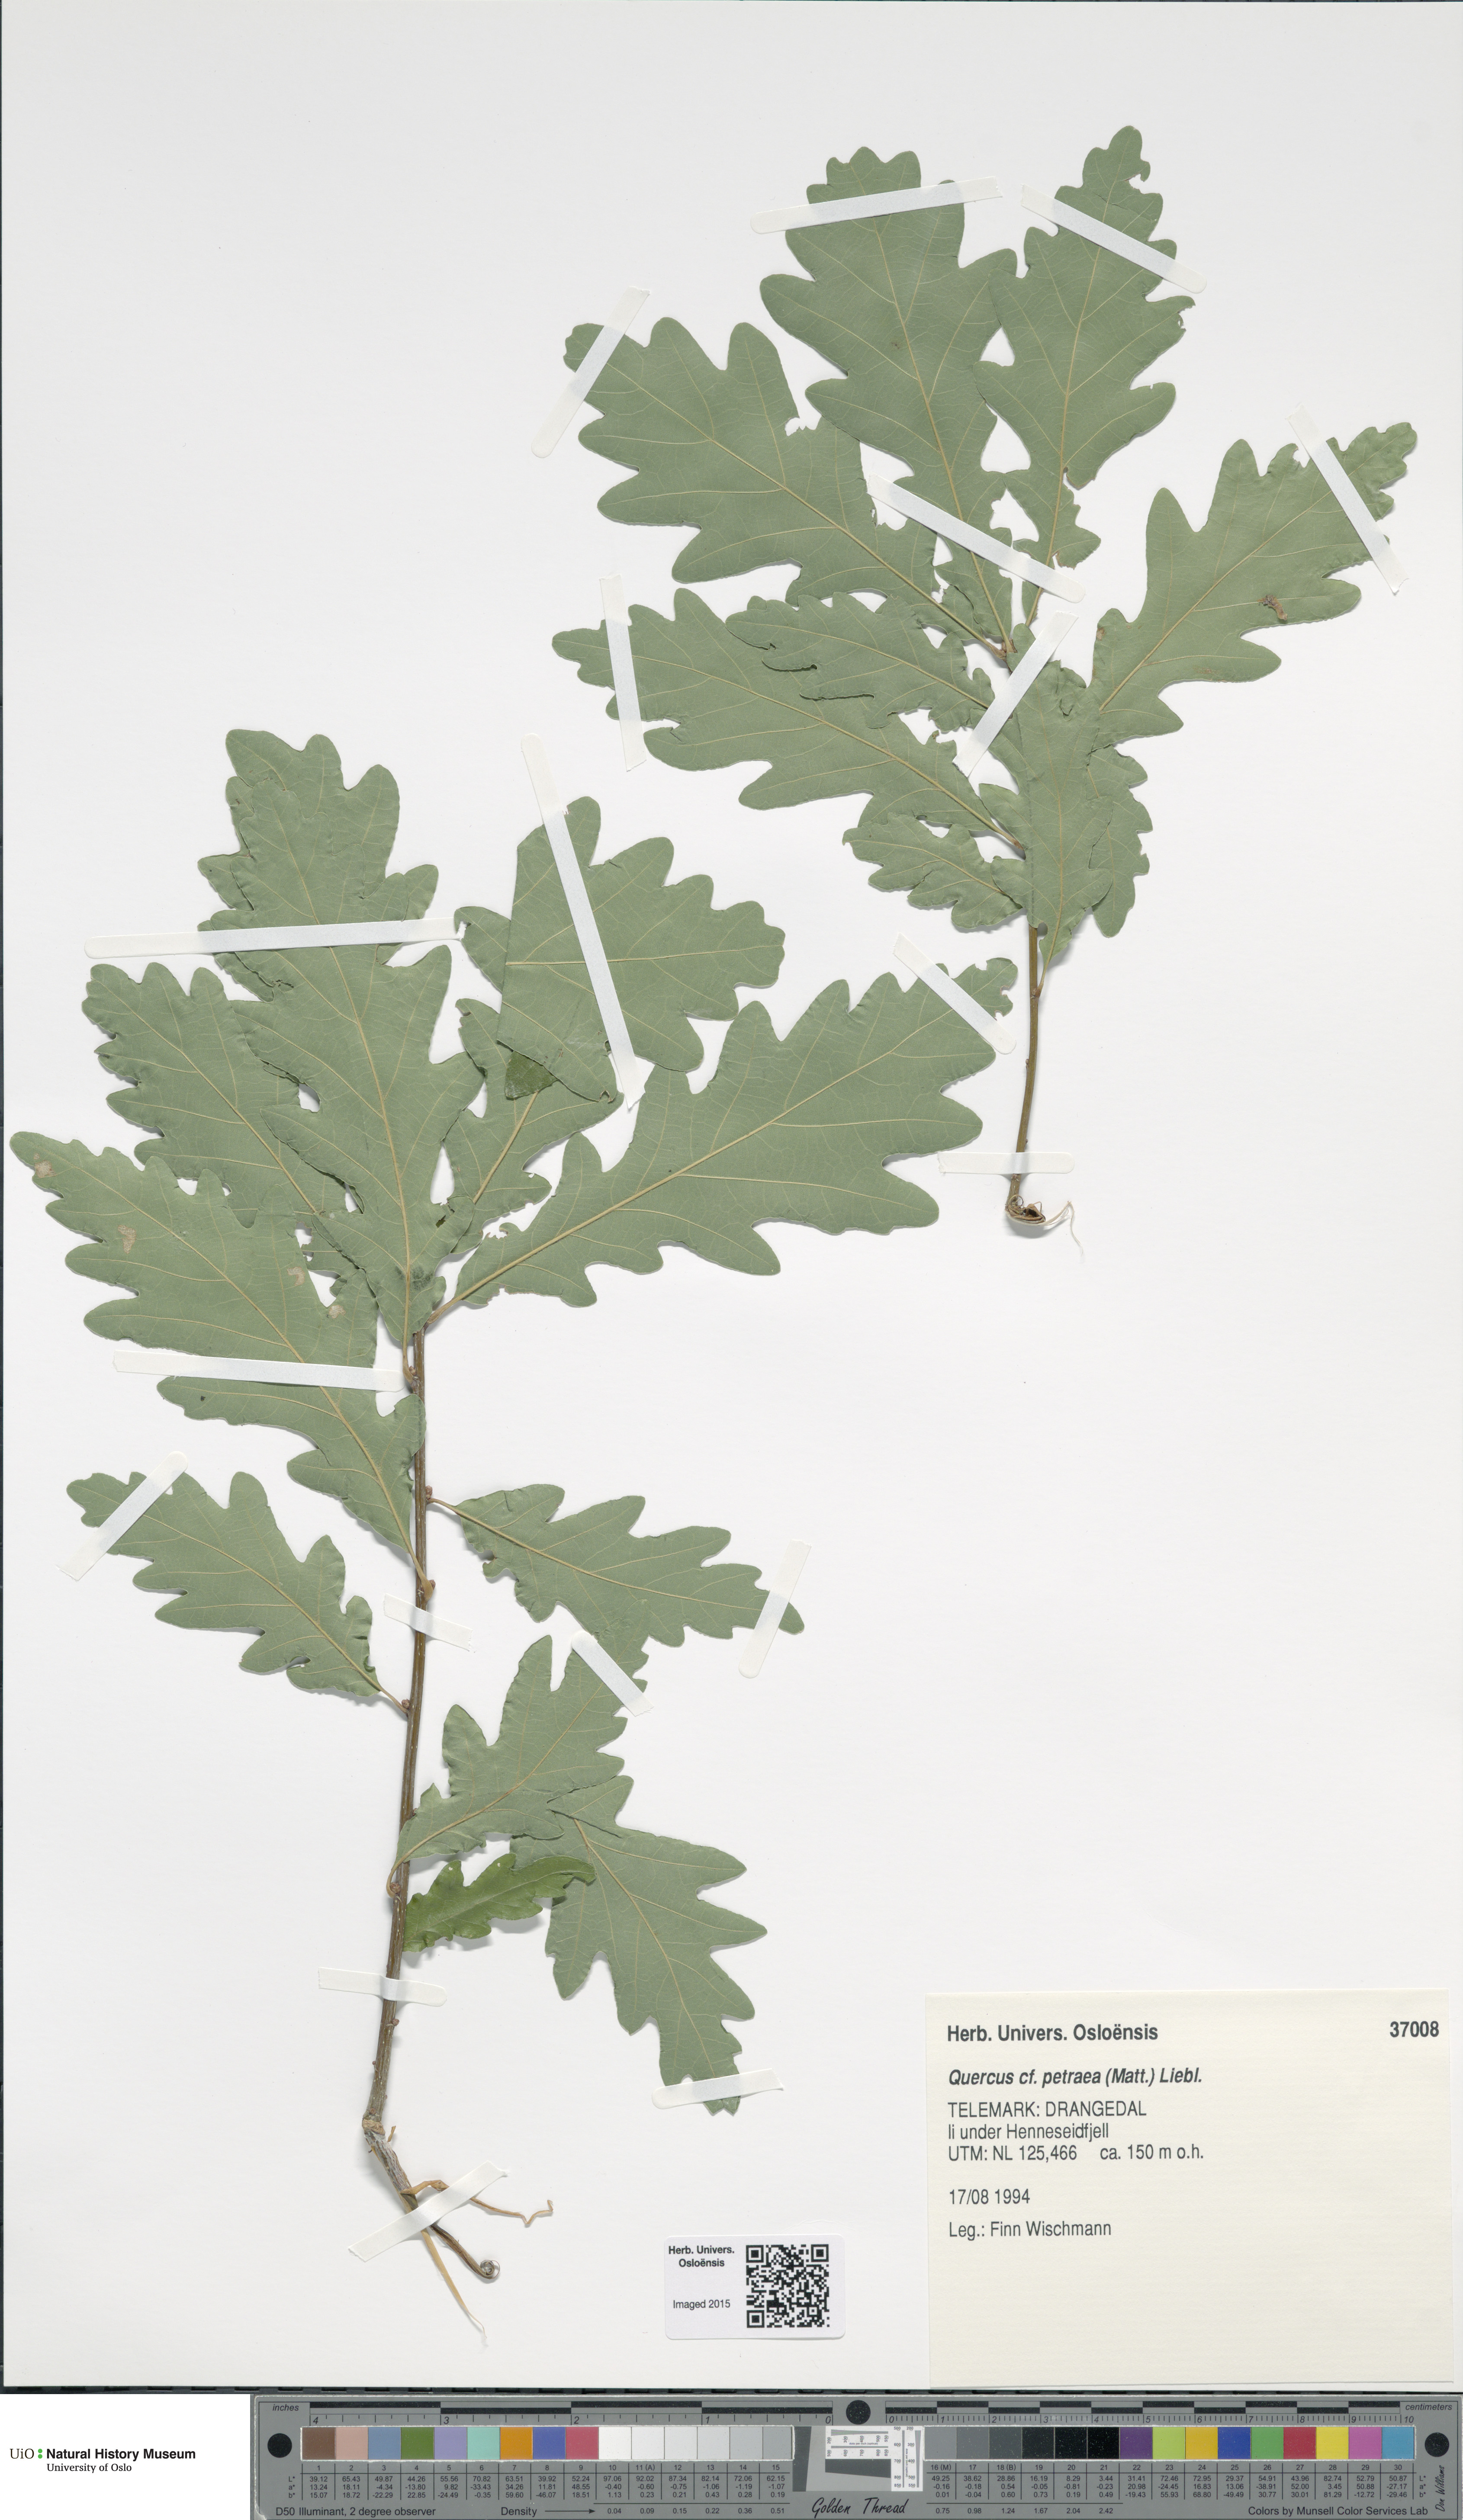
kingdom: Plantae
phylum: Tracheophyta
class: Magnoliopsida
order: Fagales
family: Fagaceae
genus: Quercus
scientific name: Quercus petraea
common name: Sessile oak
